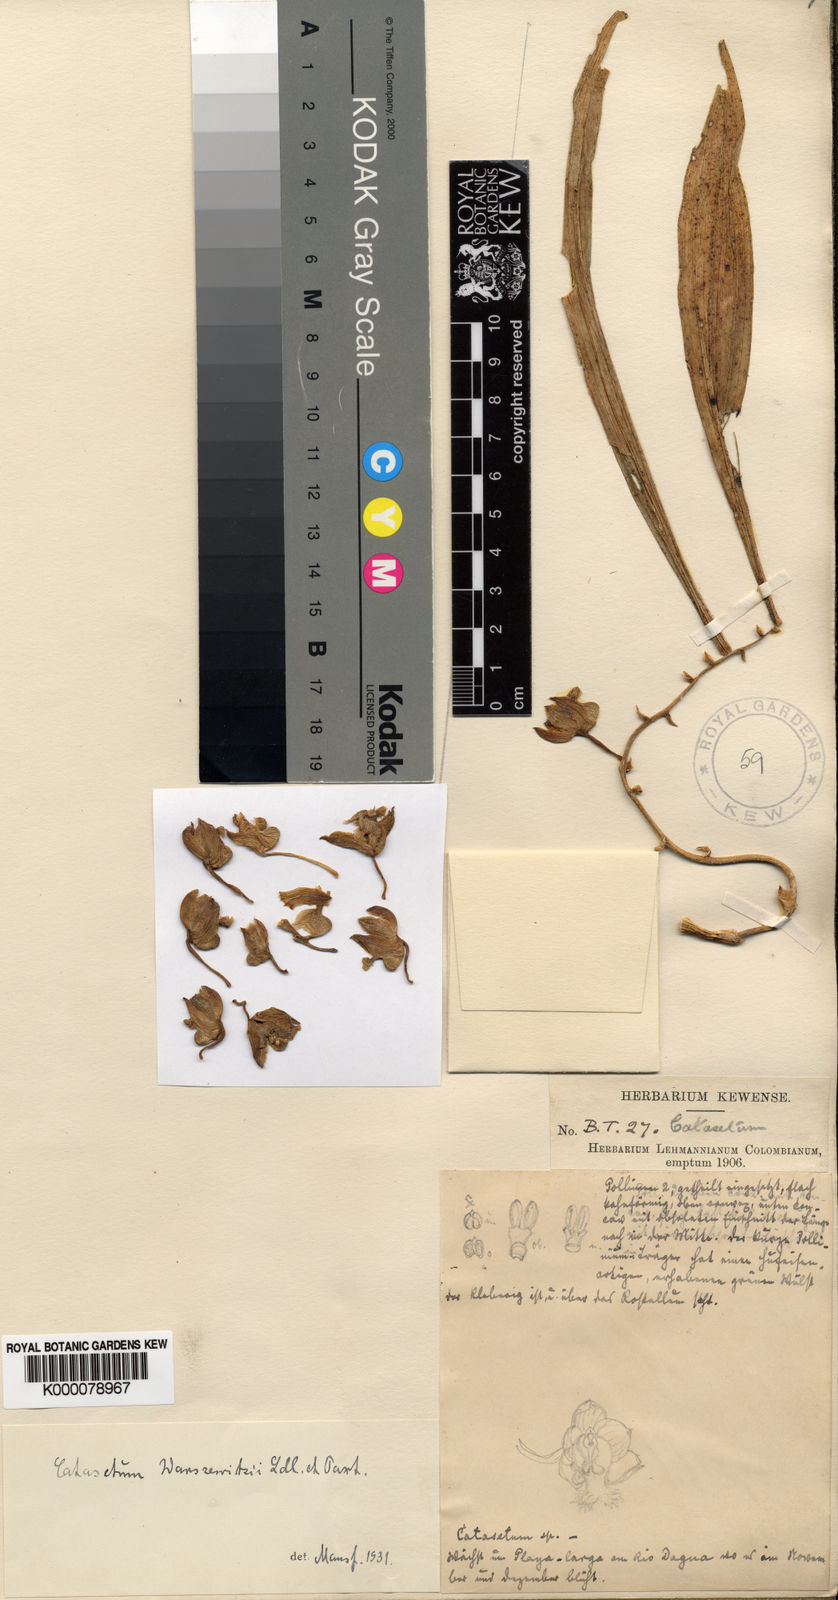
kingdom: Plantae
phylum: Tracheophyta
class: Liliopsida
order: Asparagales
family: Orchidaceae
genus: Clowesia
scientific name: Clowesia warczewitzii
